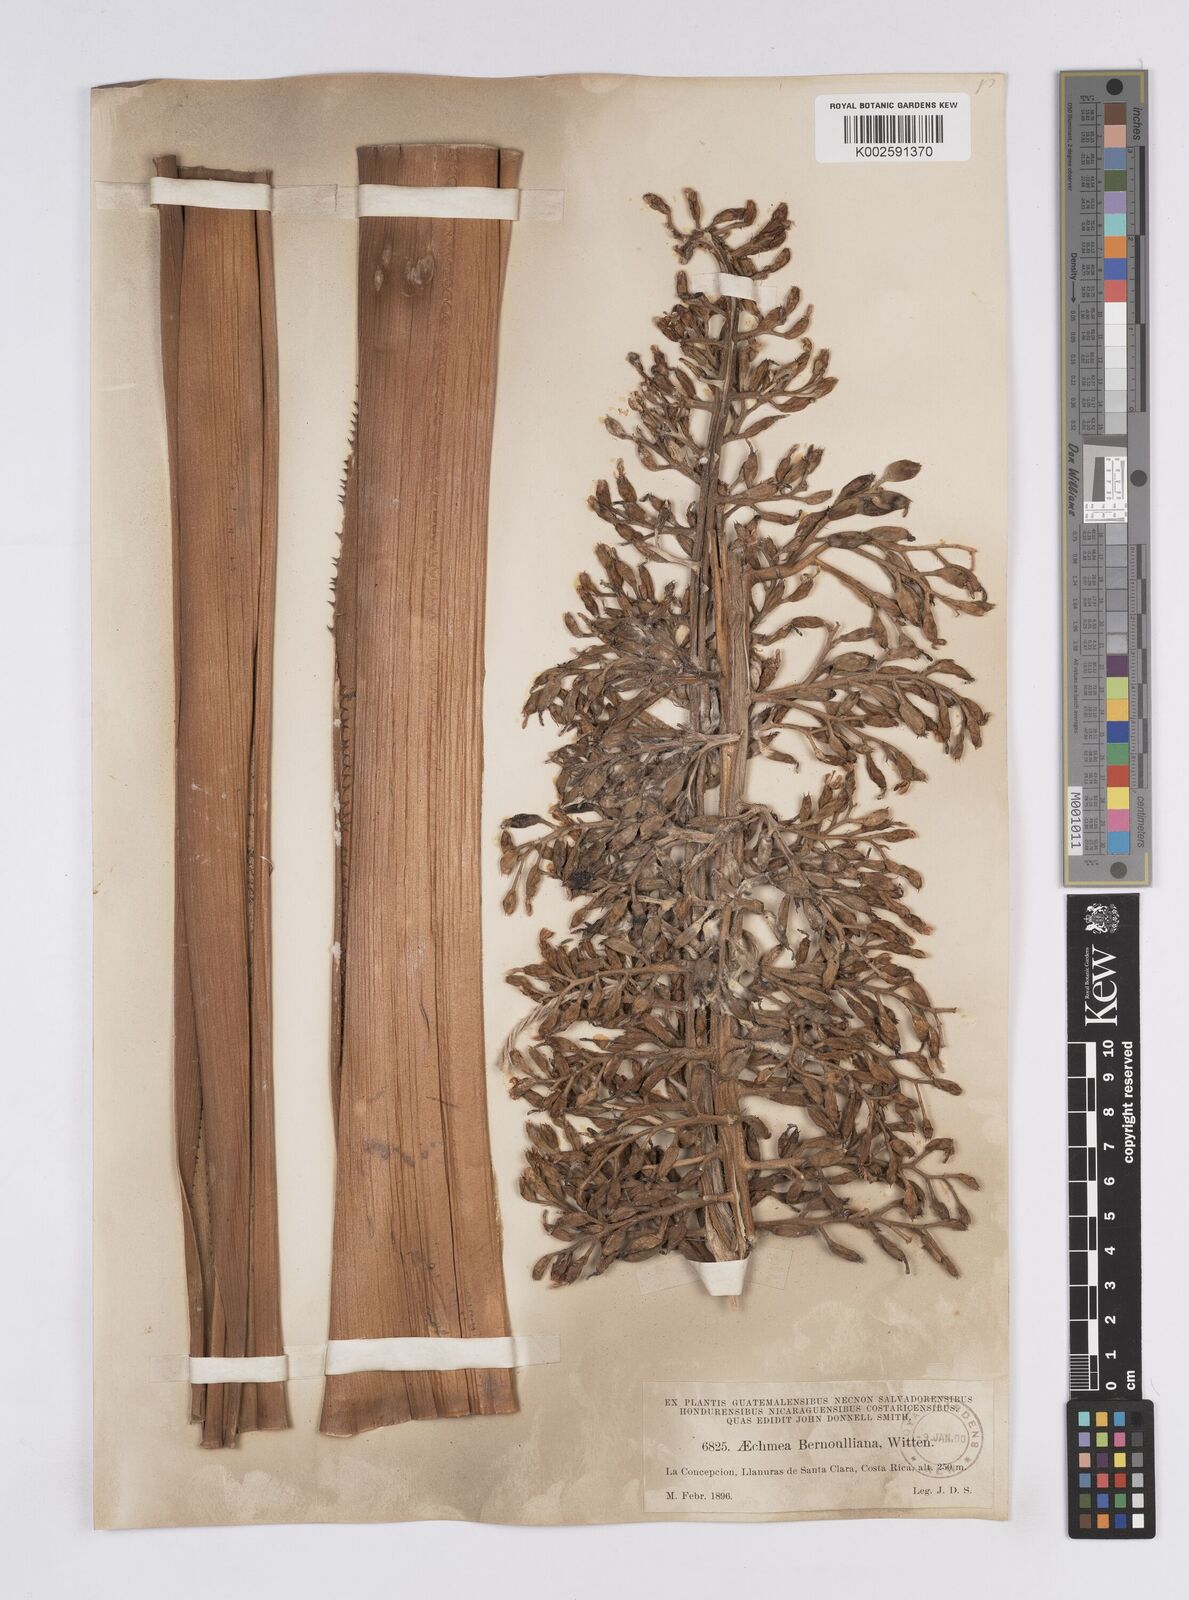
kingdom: Plantae
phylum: Tracheophyta
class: Liliopsida
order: Poales
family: Bromeliaceae
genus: Aechmea
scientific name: Aechmea mexicana
